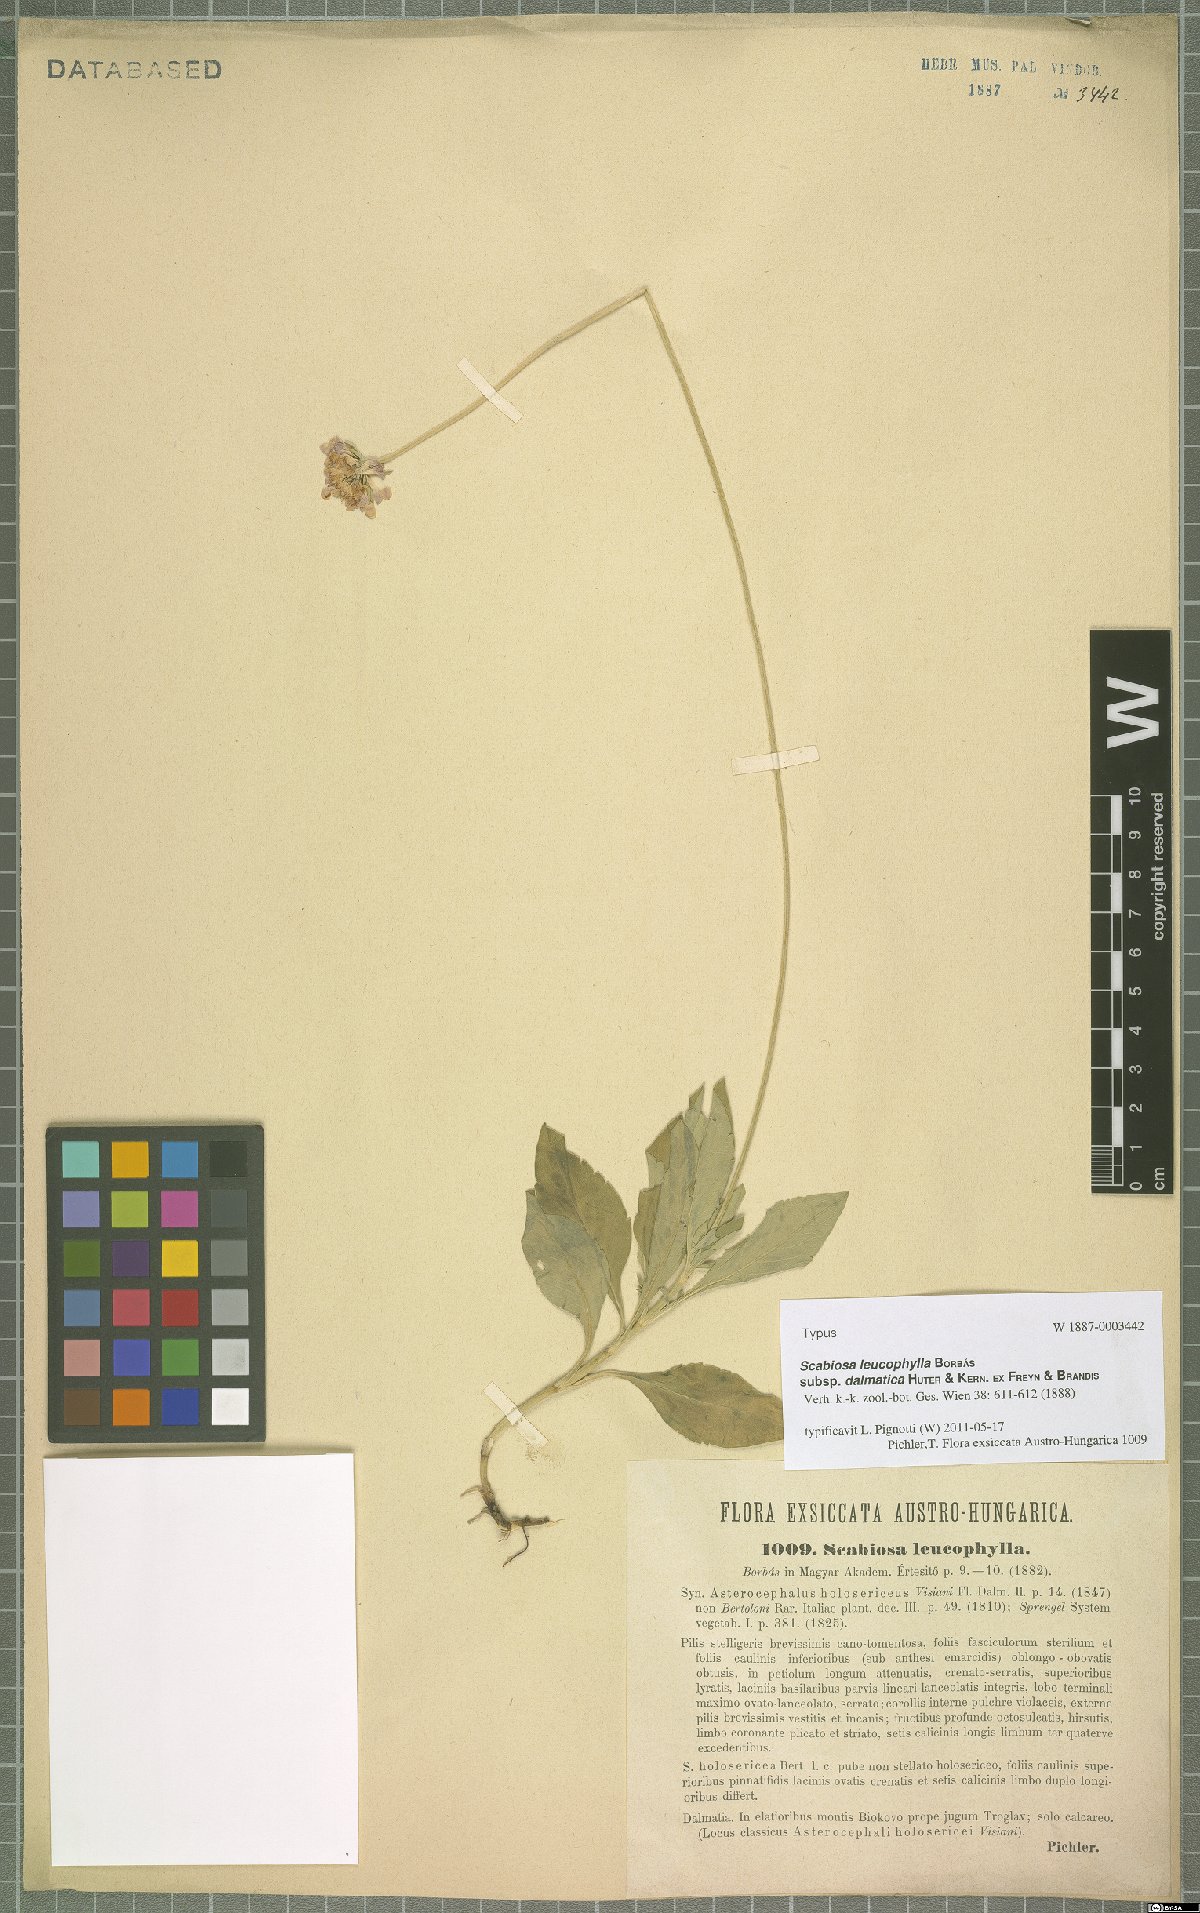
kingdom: Plantae
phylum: Tracheophyta
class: Magnoliopsida
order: Dipsacales
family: Caprifoliaceae
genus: Scabiosa
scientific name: Scabiosa cinerea
